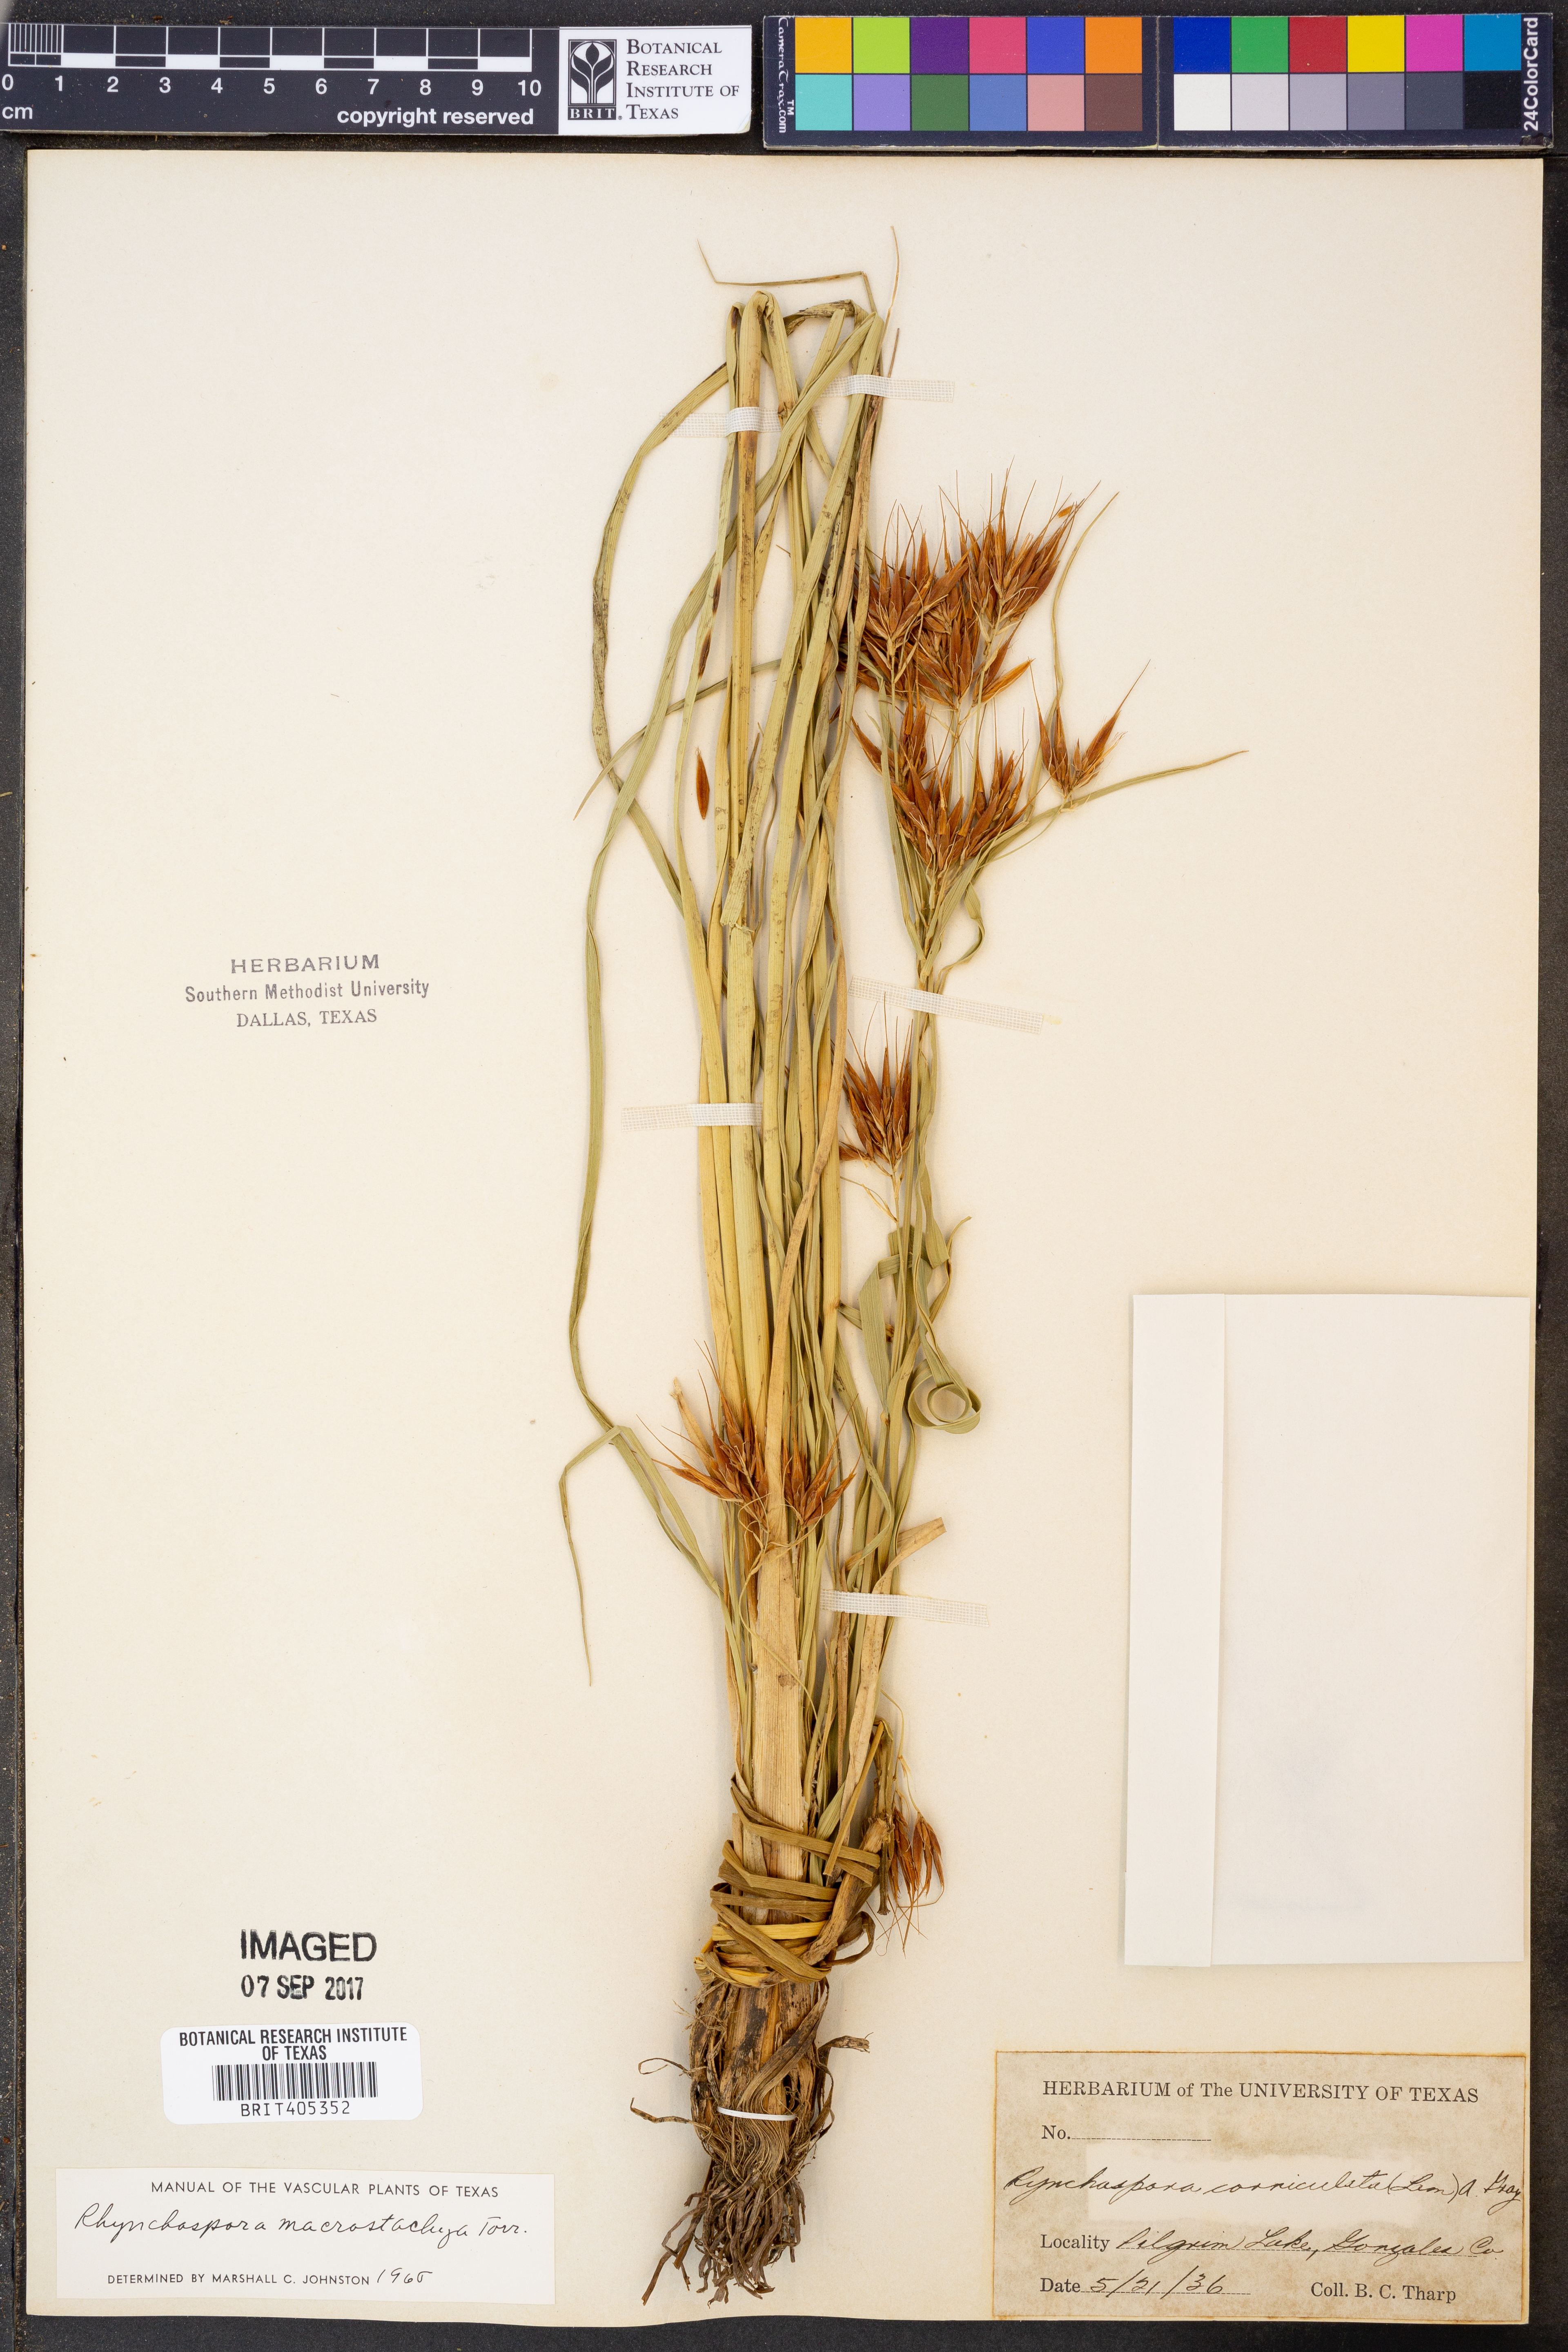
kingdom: Plantae
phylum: Tracheophyta
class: Liliopsida
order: Poales
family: Cyperaceae
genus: Rhynchospora
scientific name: Rhynchospora macrostachya
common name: Tall beakrush
